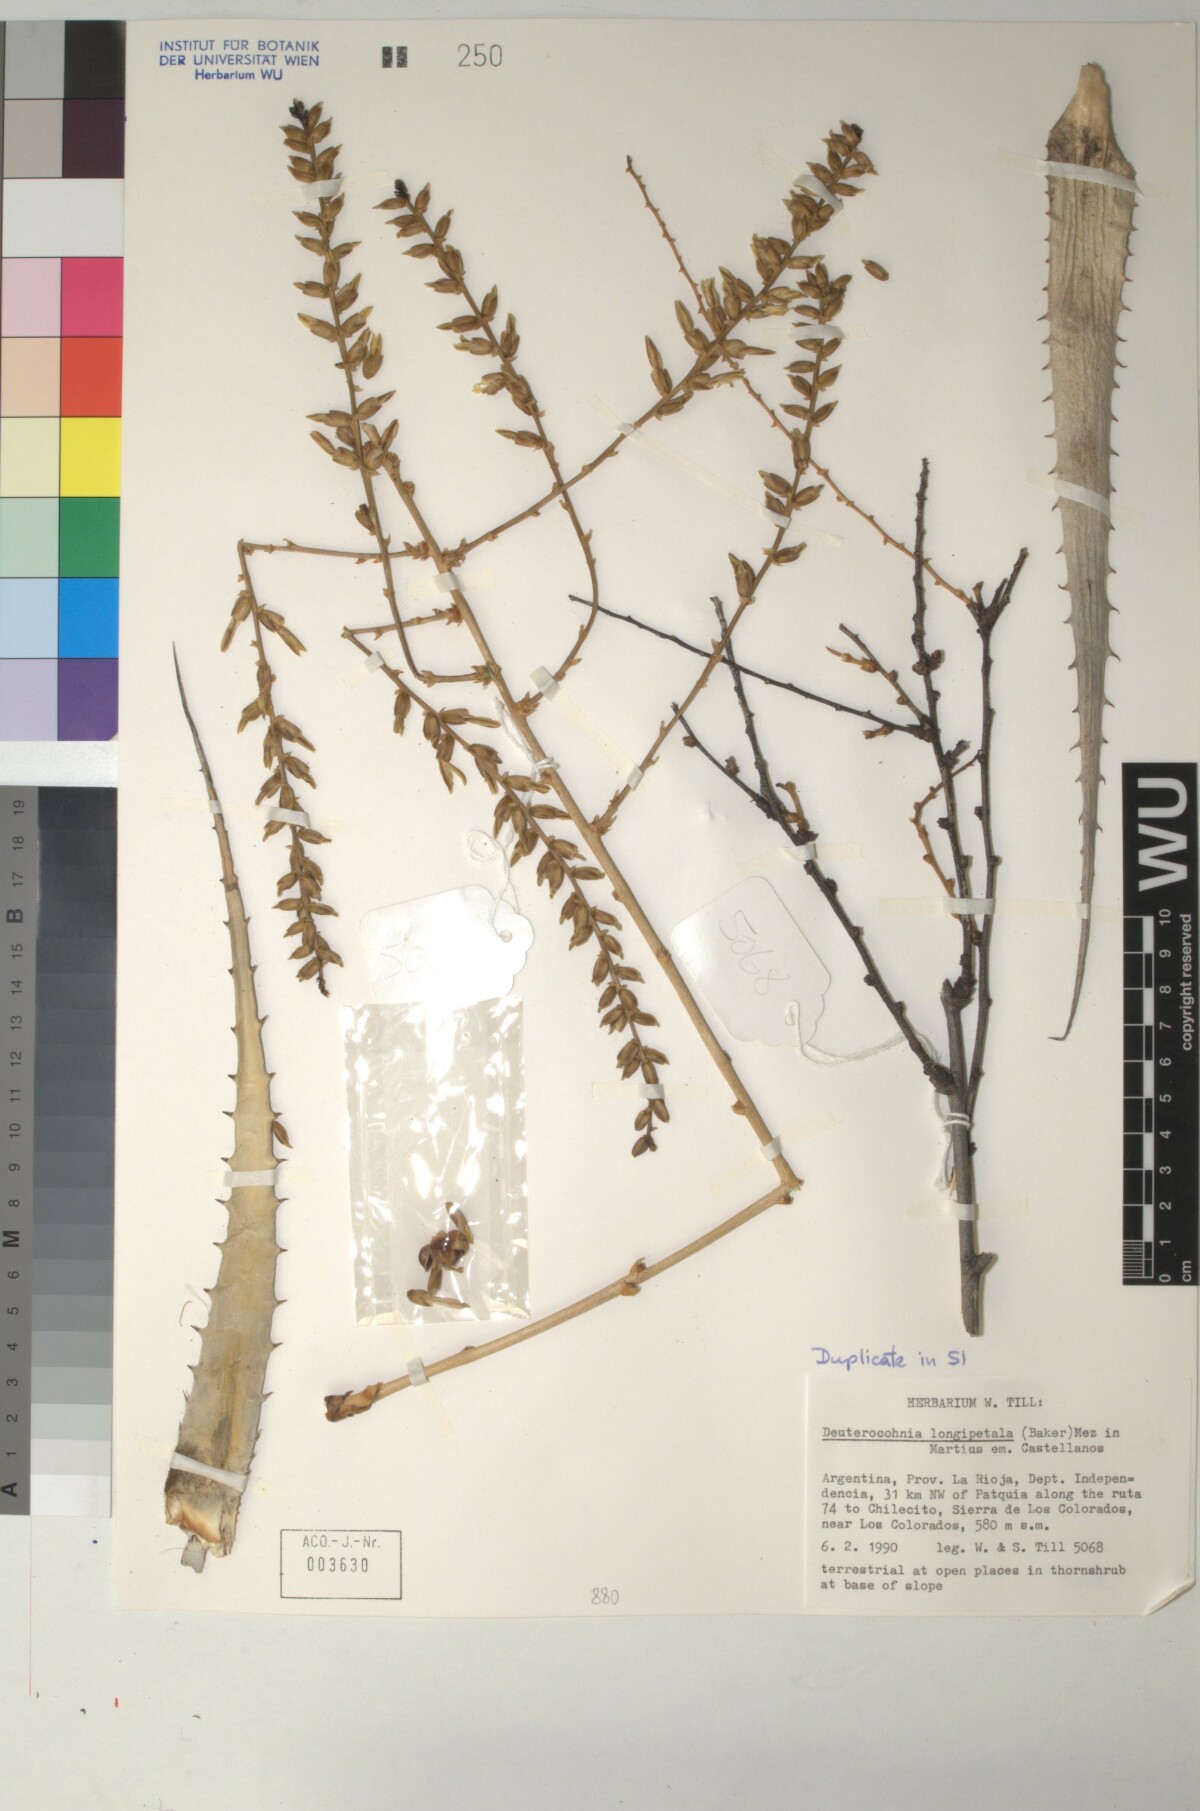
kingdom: Plantae
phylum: Tracheophyta
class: Liliopsida
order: Poales
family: Bromeliaceae
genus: Deuterocohnia
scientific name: Deuterocohnia longipetala
